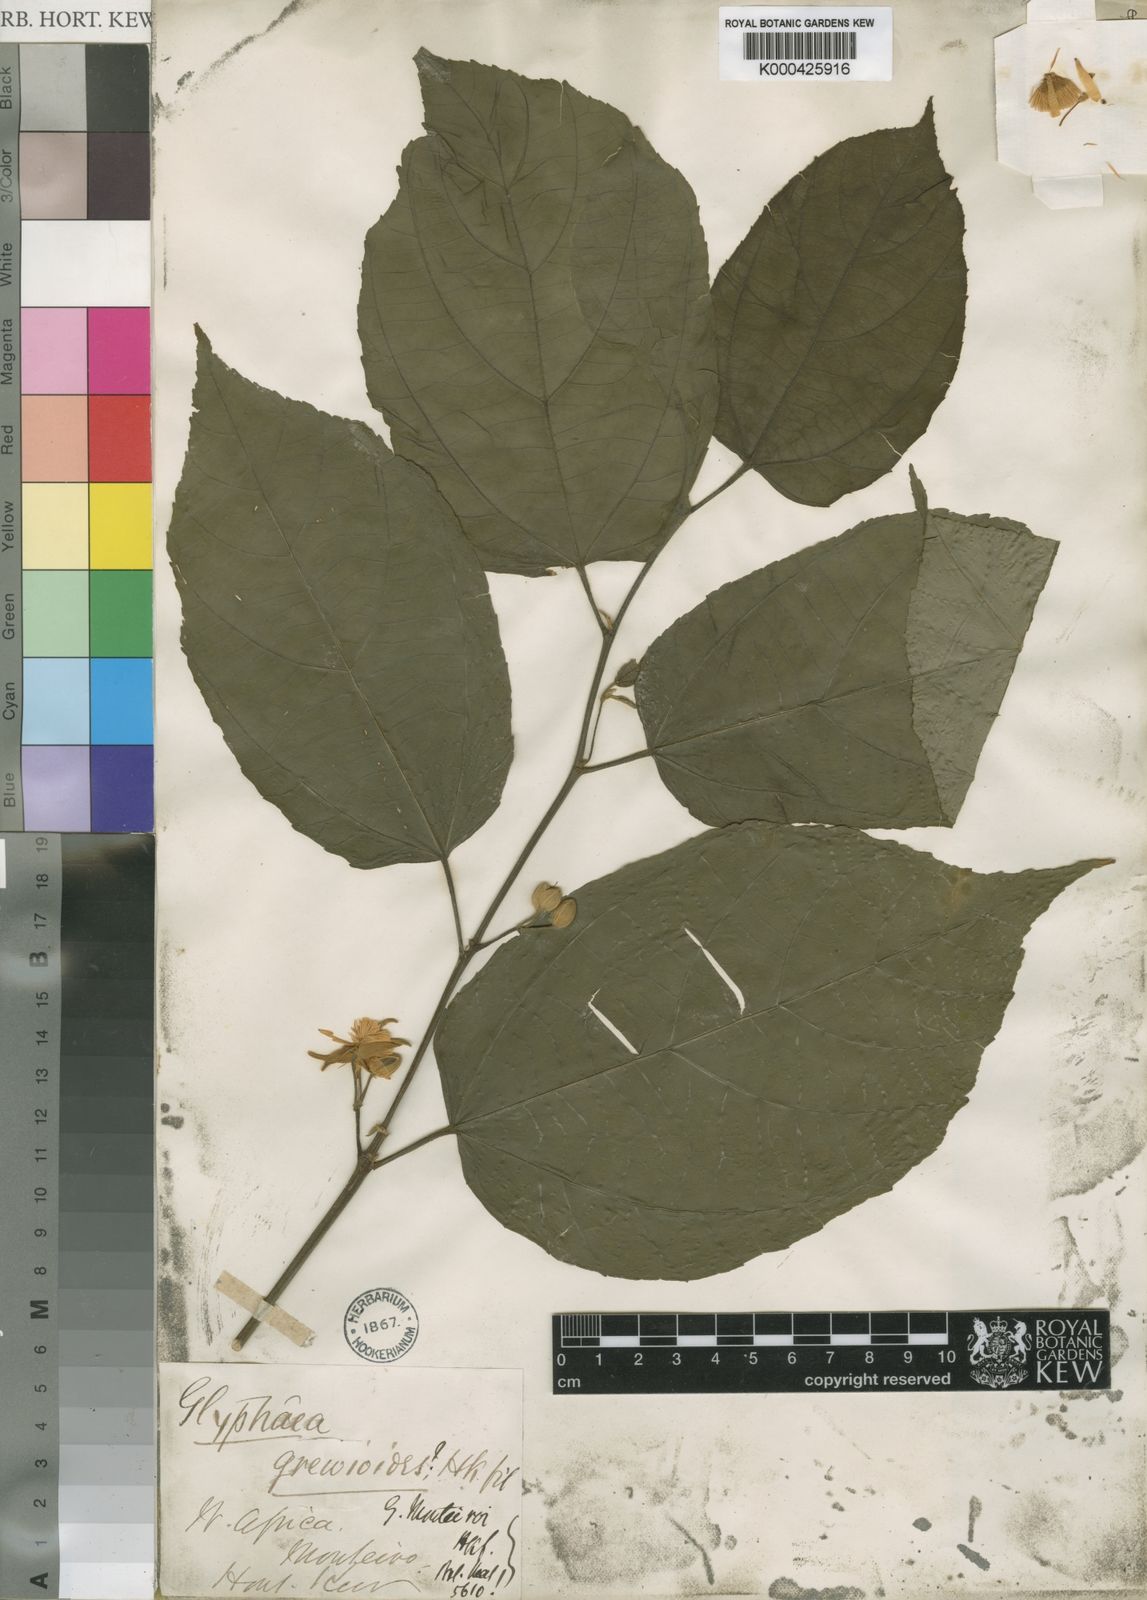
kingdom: Plantae
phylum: Tracheophyta
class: Magnoliopsida
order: Malvales
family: Malvaceae
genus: Glyphaea
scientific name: Glyphaea brevis
